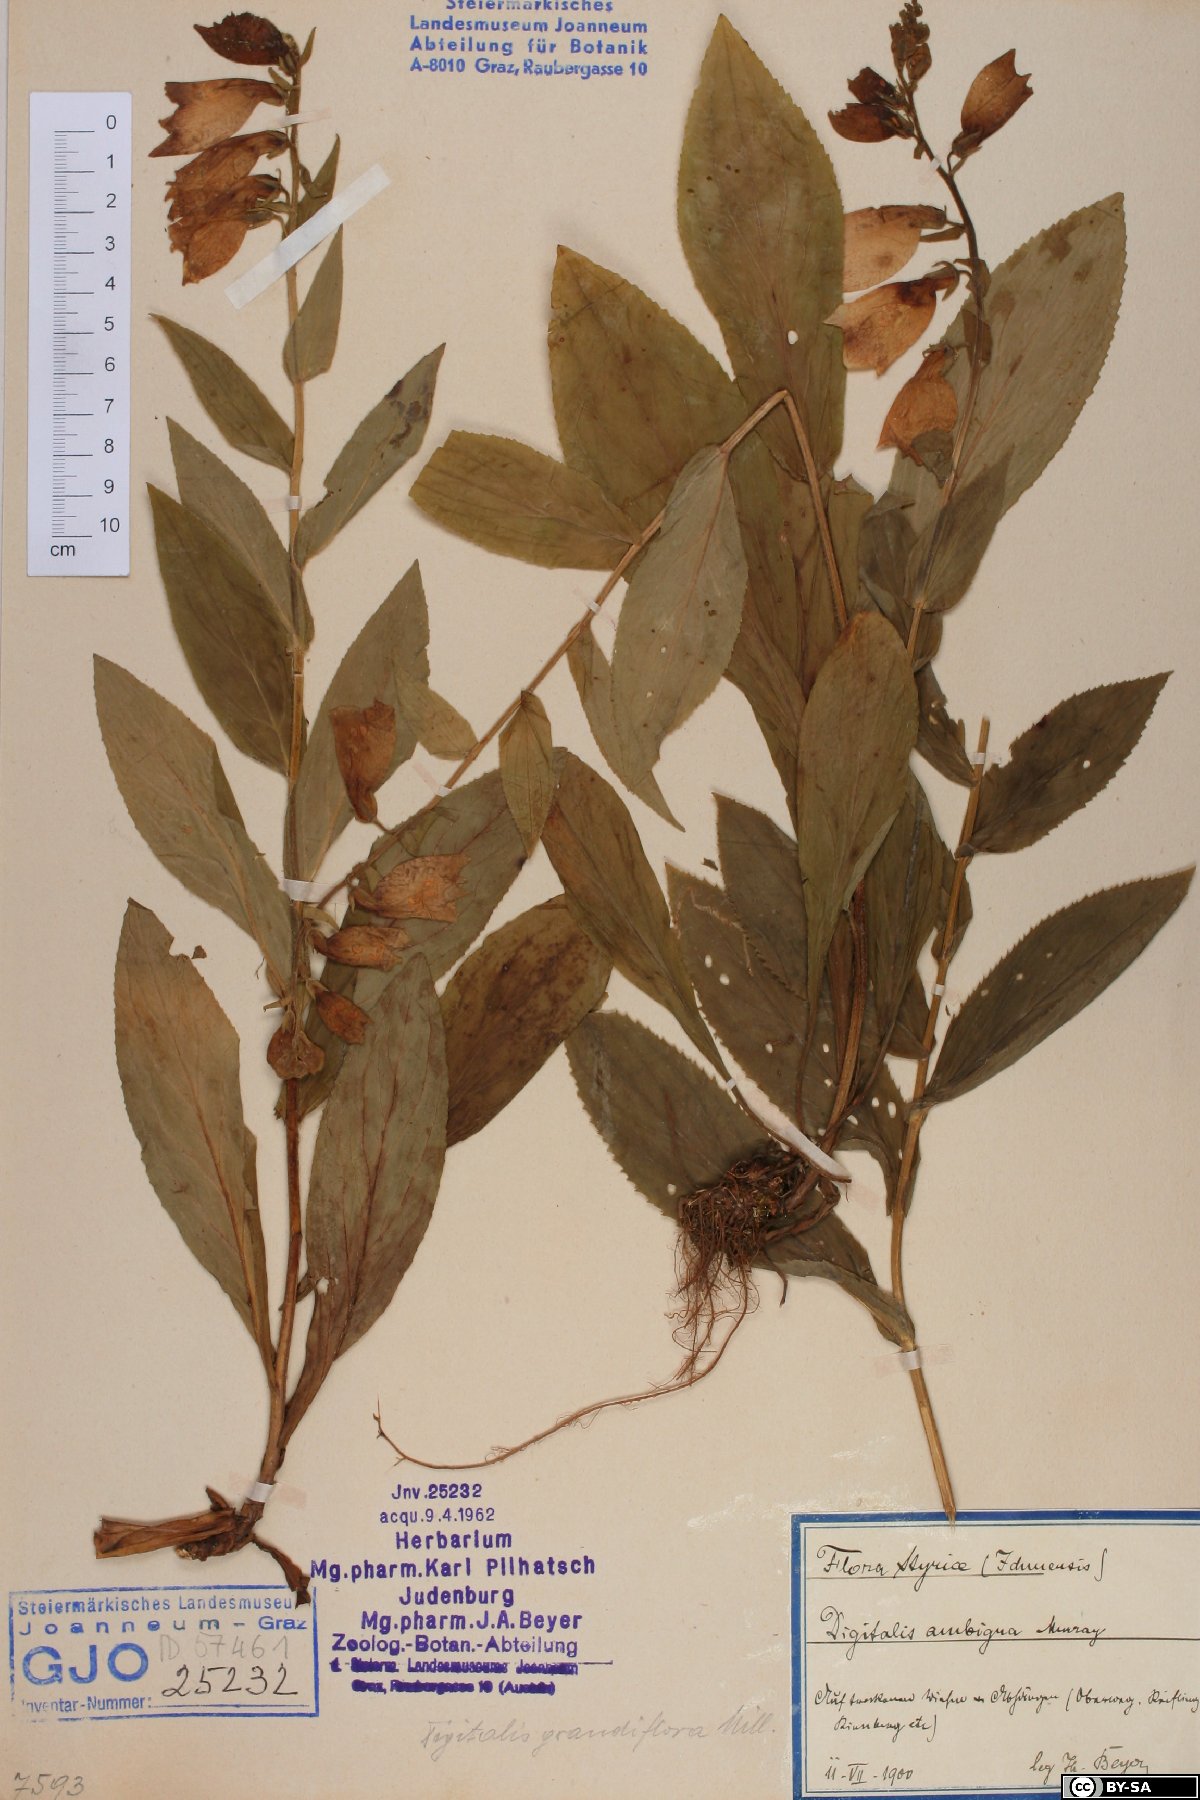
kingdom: Plantae
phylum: Tracheophyta
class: Magnoliopsida
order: Lamiales
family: Plantaginaceae
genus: Digitalis
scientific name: Digitalis grandiflora
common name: Yellow foxglove
